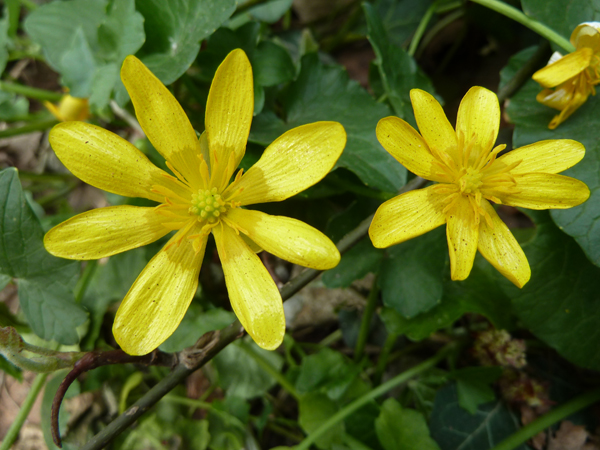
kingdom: Plantae
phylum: Tracheophyta
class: Magnoliopsida
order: Ranunculales
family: Ranunculaceae
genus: Ficaria
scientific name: Ficaria verna
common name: Lesser celandine
